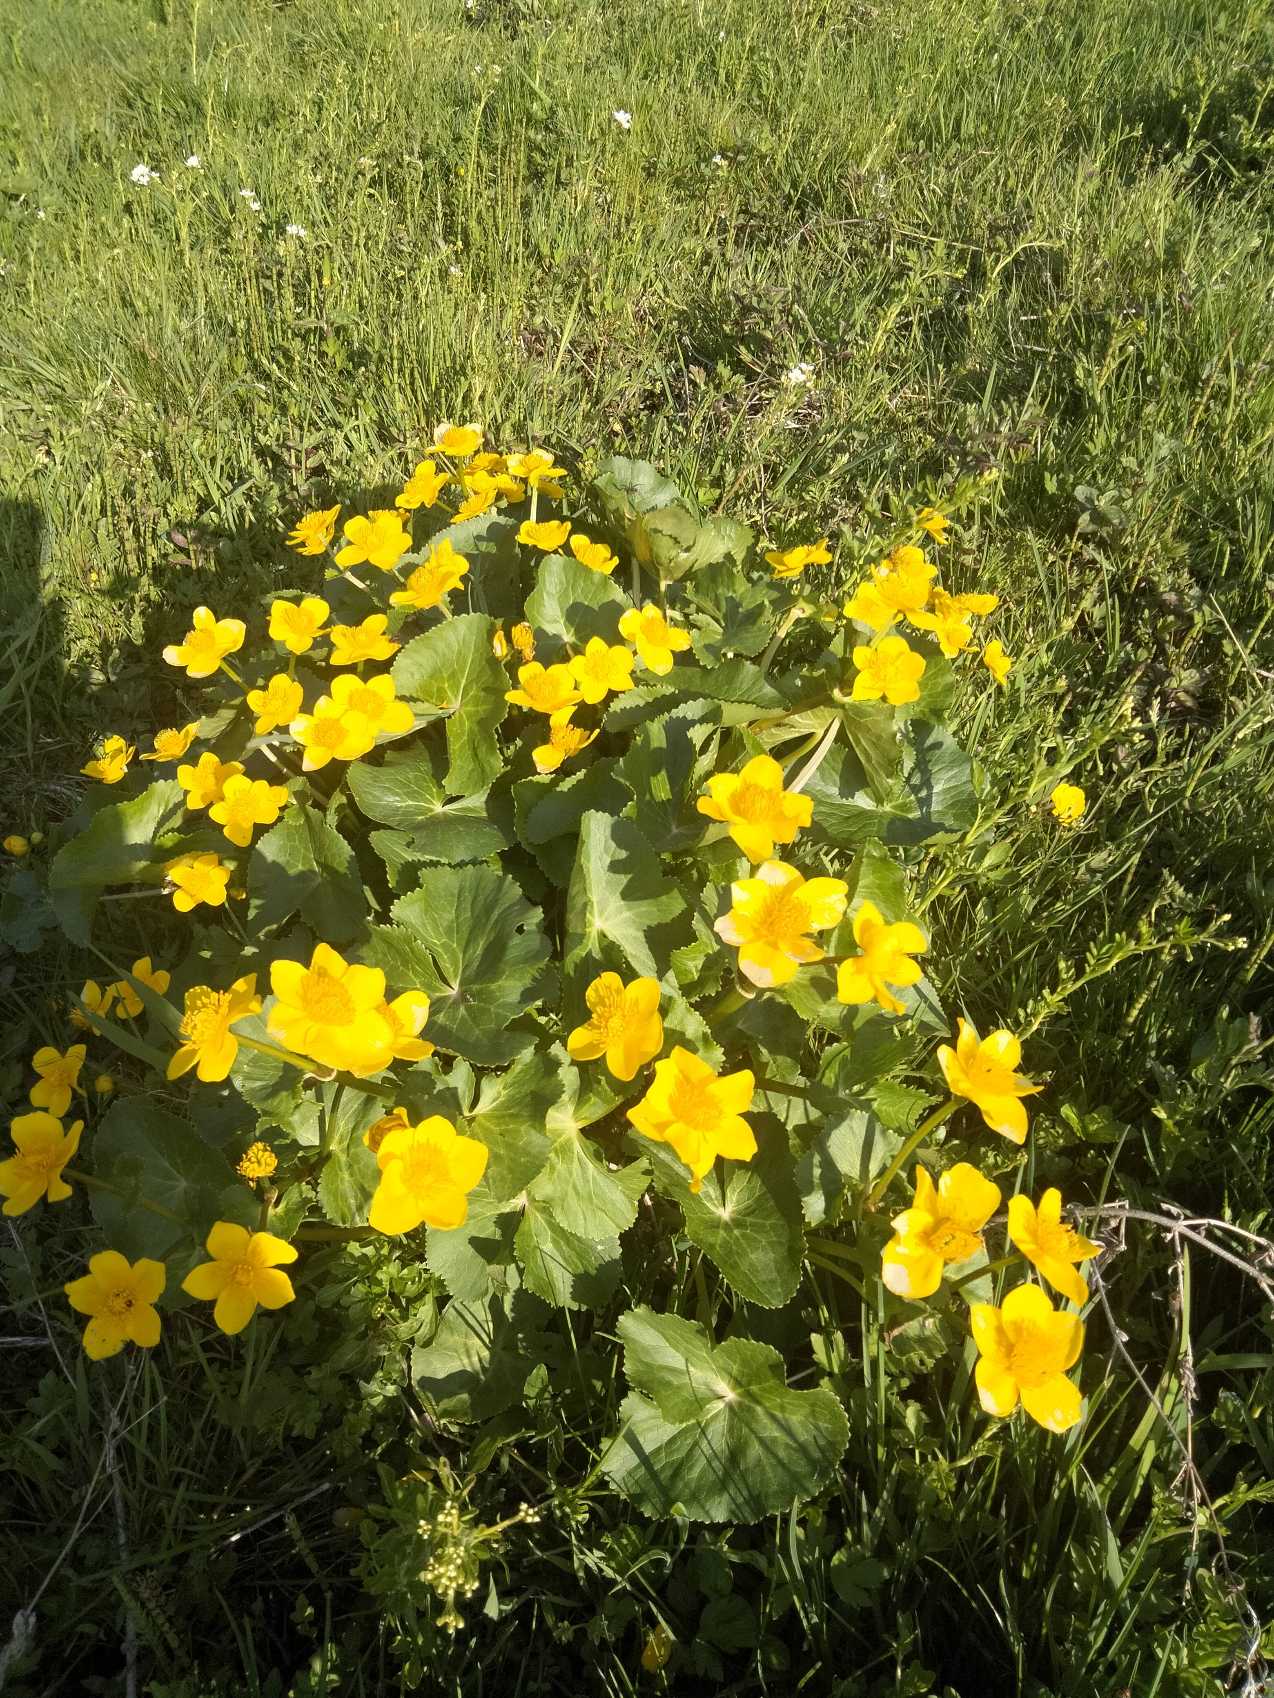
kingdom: Plantae
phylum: Tracheophyta
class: Magnoliopsida
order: Ranunculales
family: Ranunculaceae
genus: Caltha
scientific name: Caltha palustris
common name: Eng-kabbeleje
